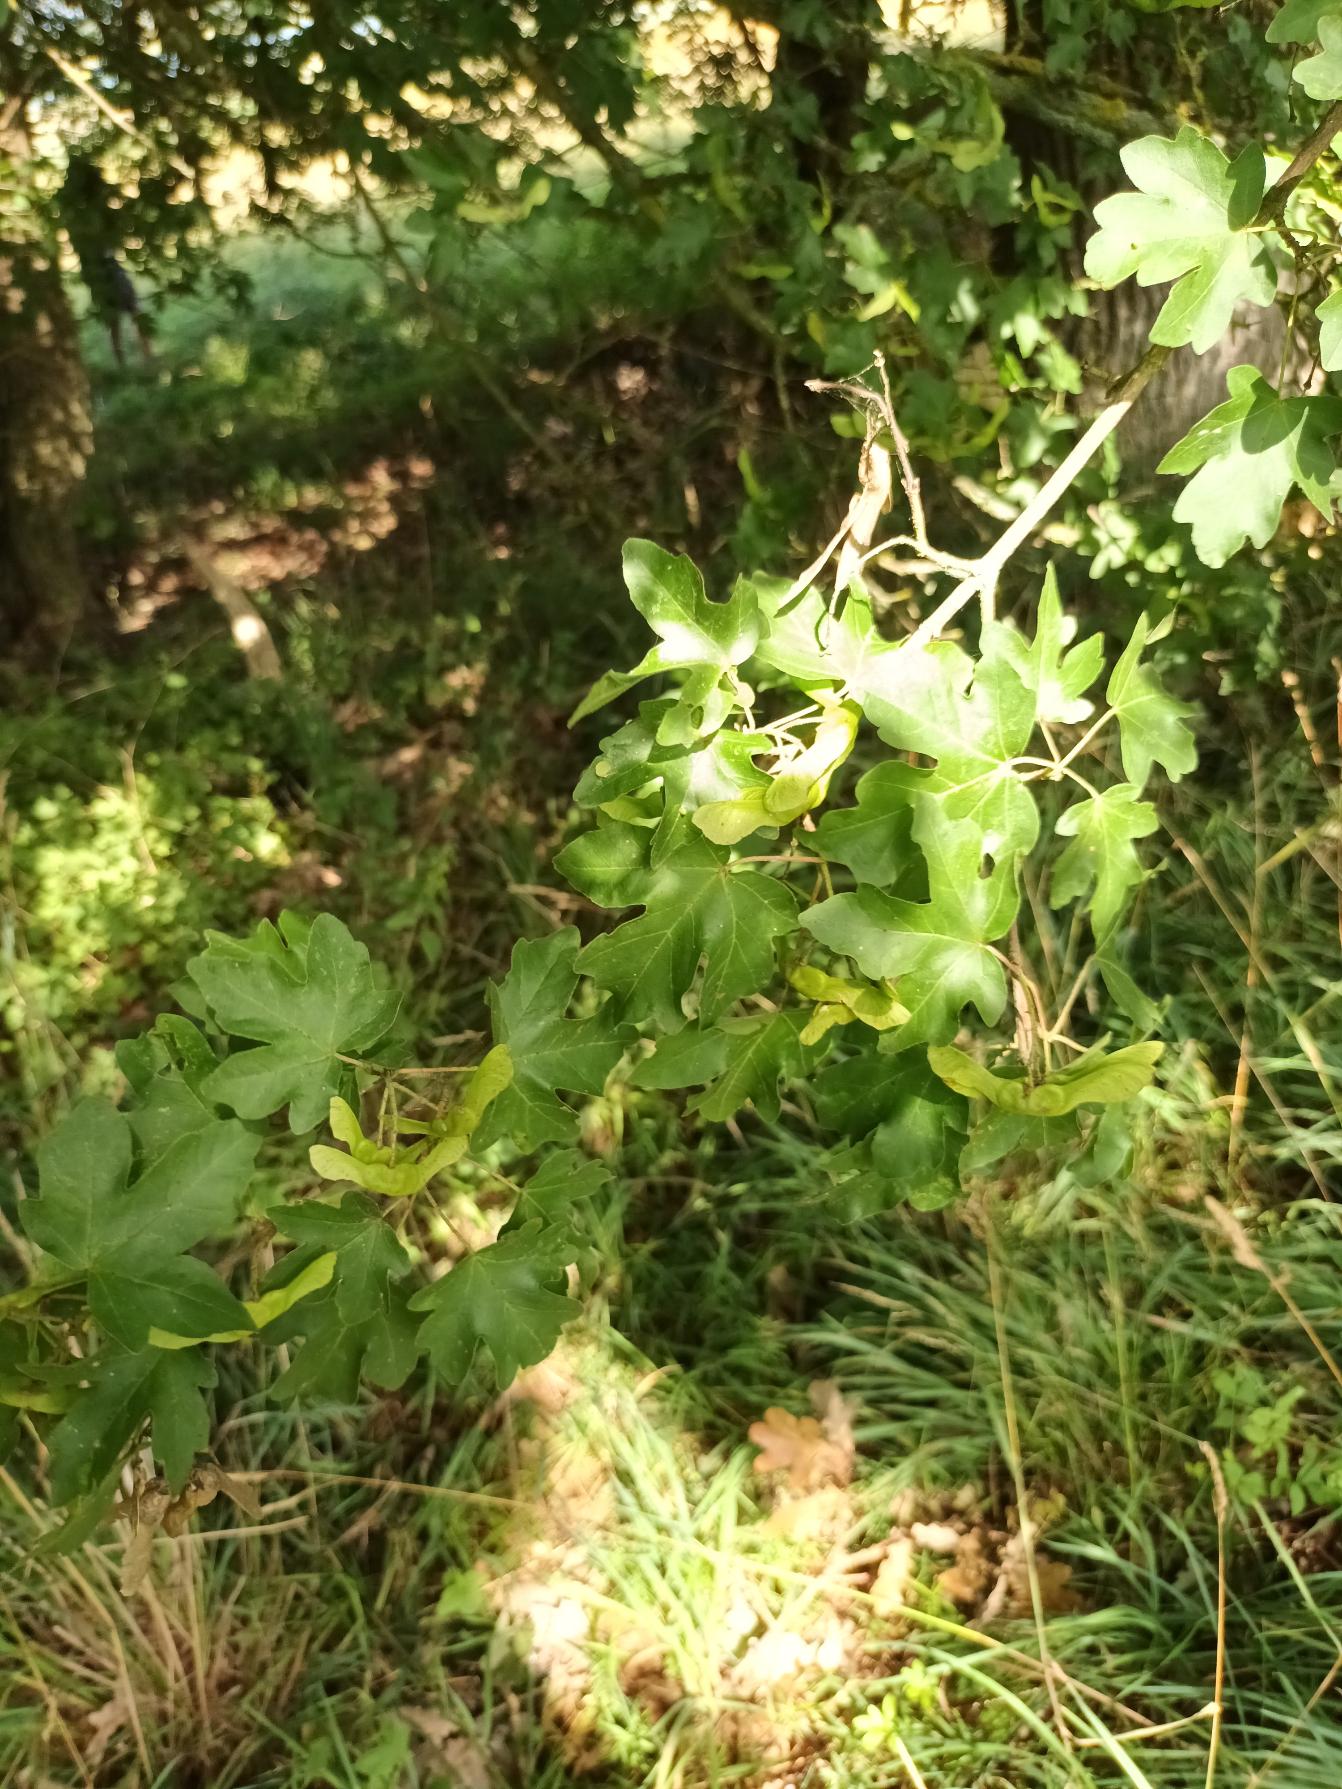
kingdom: Plantae
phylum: Tracheophyta
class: Magnoliopsida
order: Sapindales
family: Sapindaceae
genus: Acer
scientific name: Acer campestre
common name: Navr
